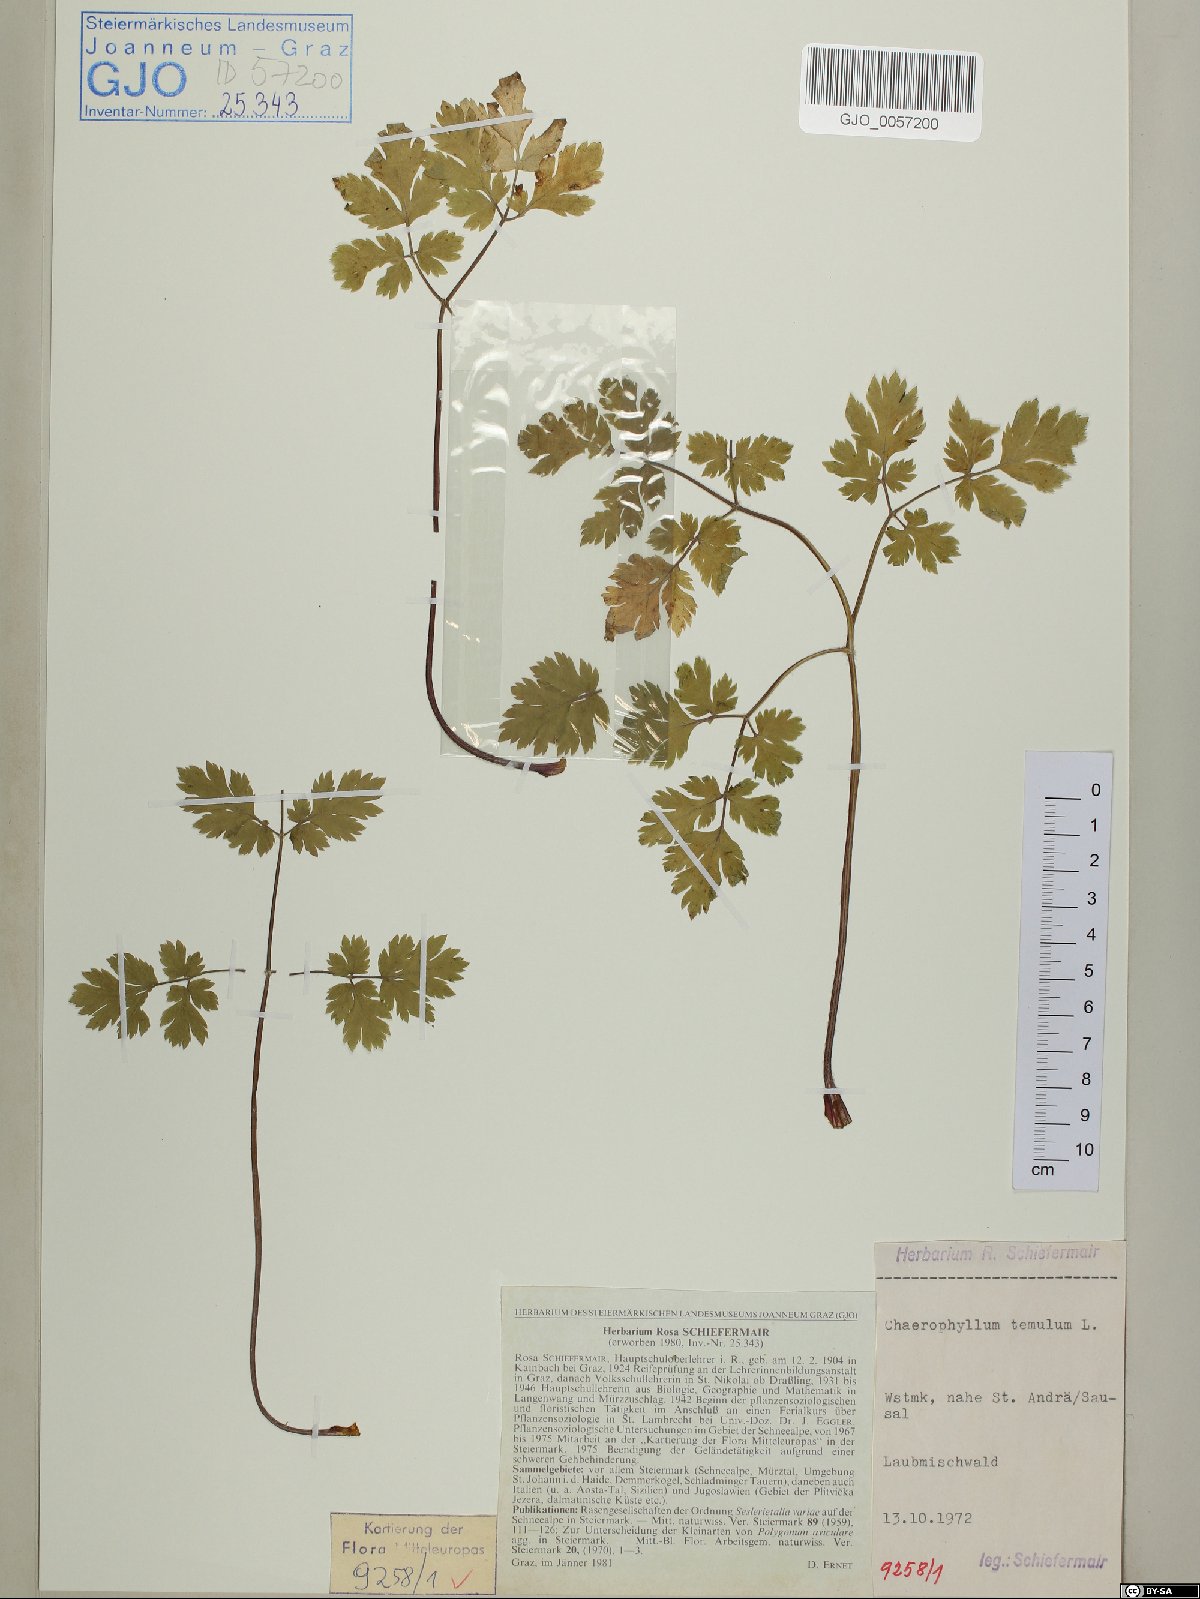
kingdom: Plantae
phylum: Tracheophyta
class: Magnoliopsida
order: Apiales
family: Apiaceae
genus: Chaerophyllum
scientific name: Chaerophyllum temulum
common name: Rough chervil
